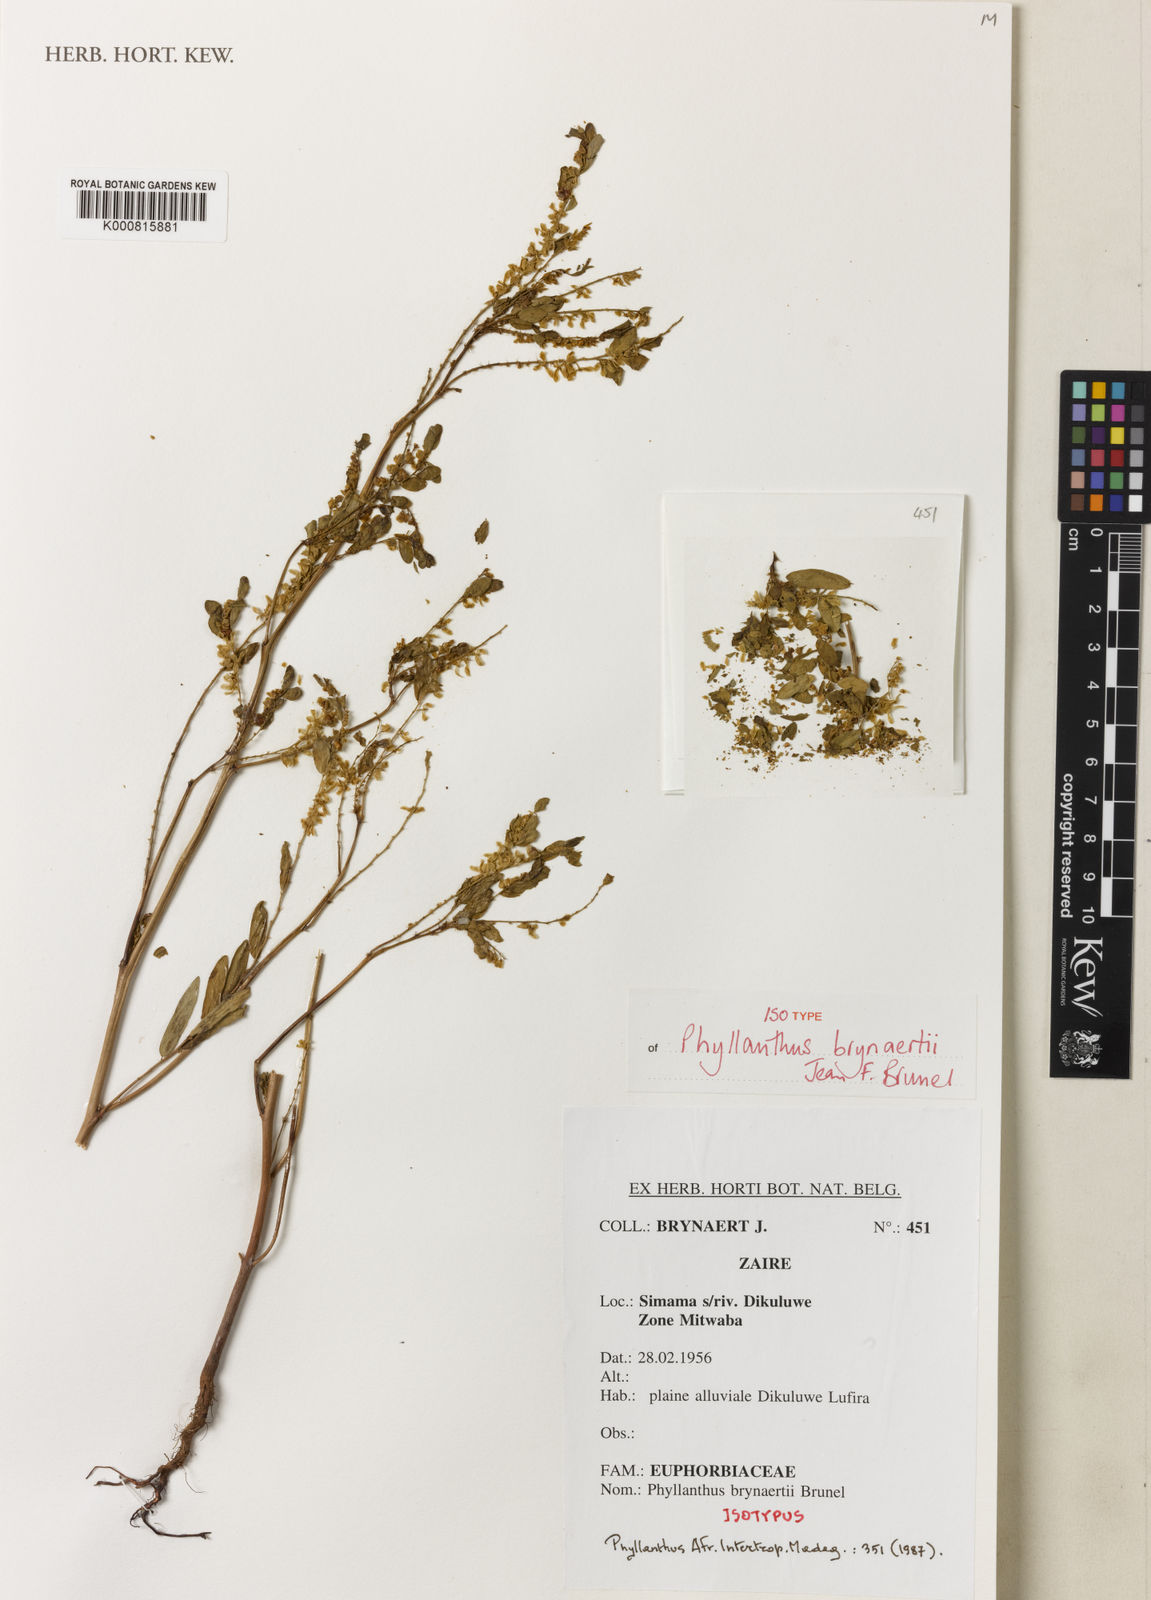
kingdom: Plantae
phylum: Tracheophyta
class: Magnoliopsida
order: Malpighiales
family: Phyllanthaceae
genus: Phyllanthus
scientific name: Phyllanthus brynaertii
